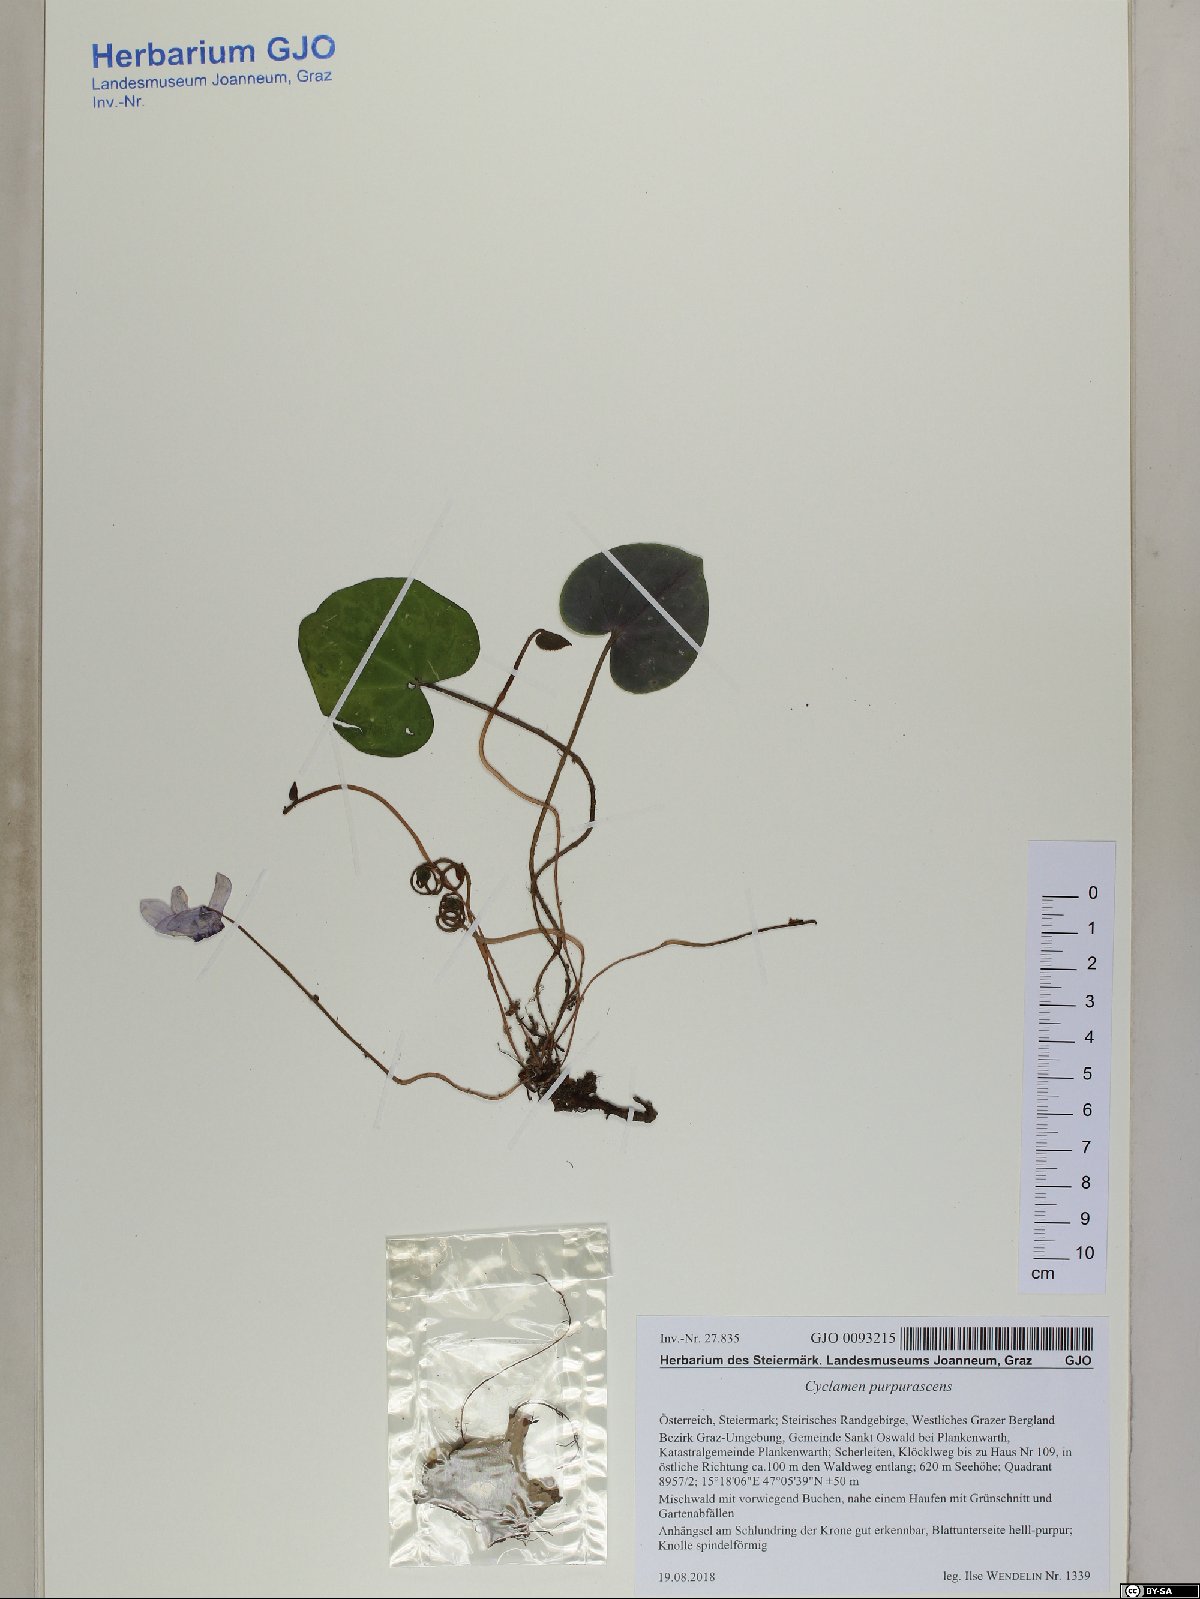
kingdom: Plantae
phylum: Tracheophyta
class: Magnoliopsida
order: Ericales
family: Primulaceae
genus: Cyclamen
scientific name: Cyclamen purpurascens
